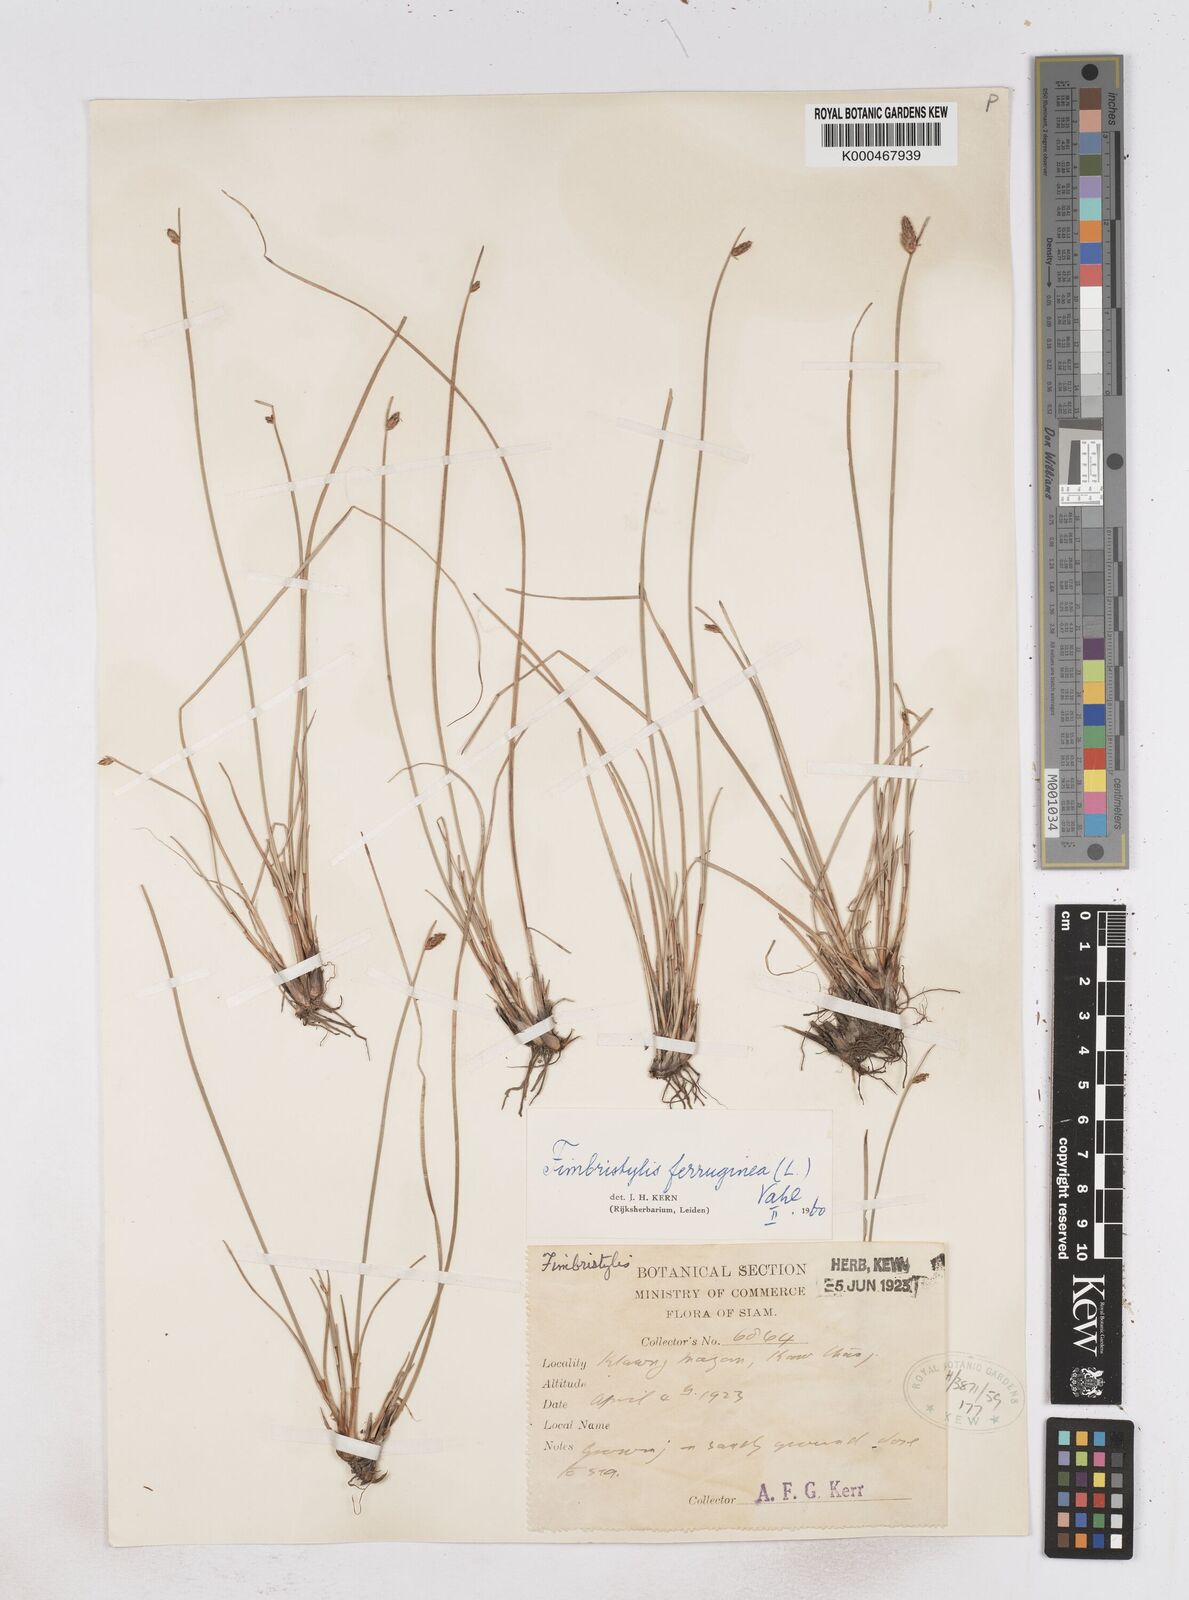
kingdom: Plantae
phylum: Tracheophyta
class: Liliopsida
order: Poales
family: Cyperaceae
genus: Fimbristylis
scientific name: Fimbristylis ferruginea
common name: West indian fimbry
